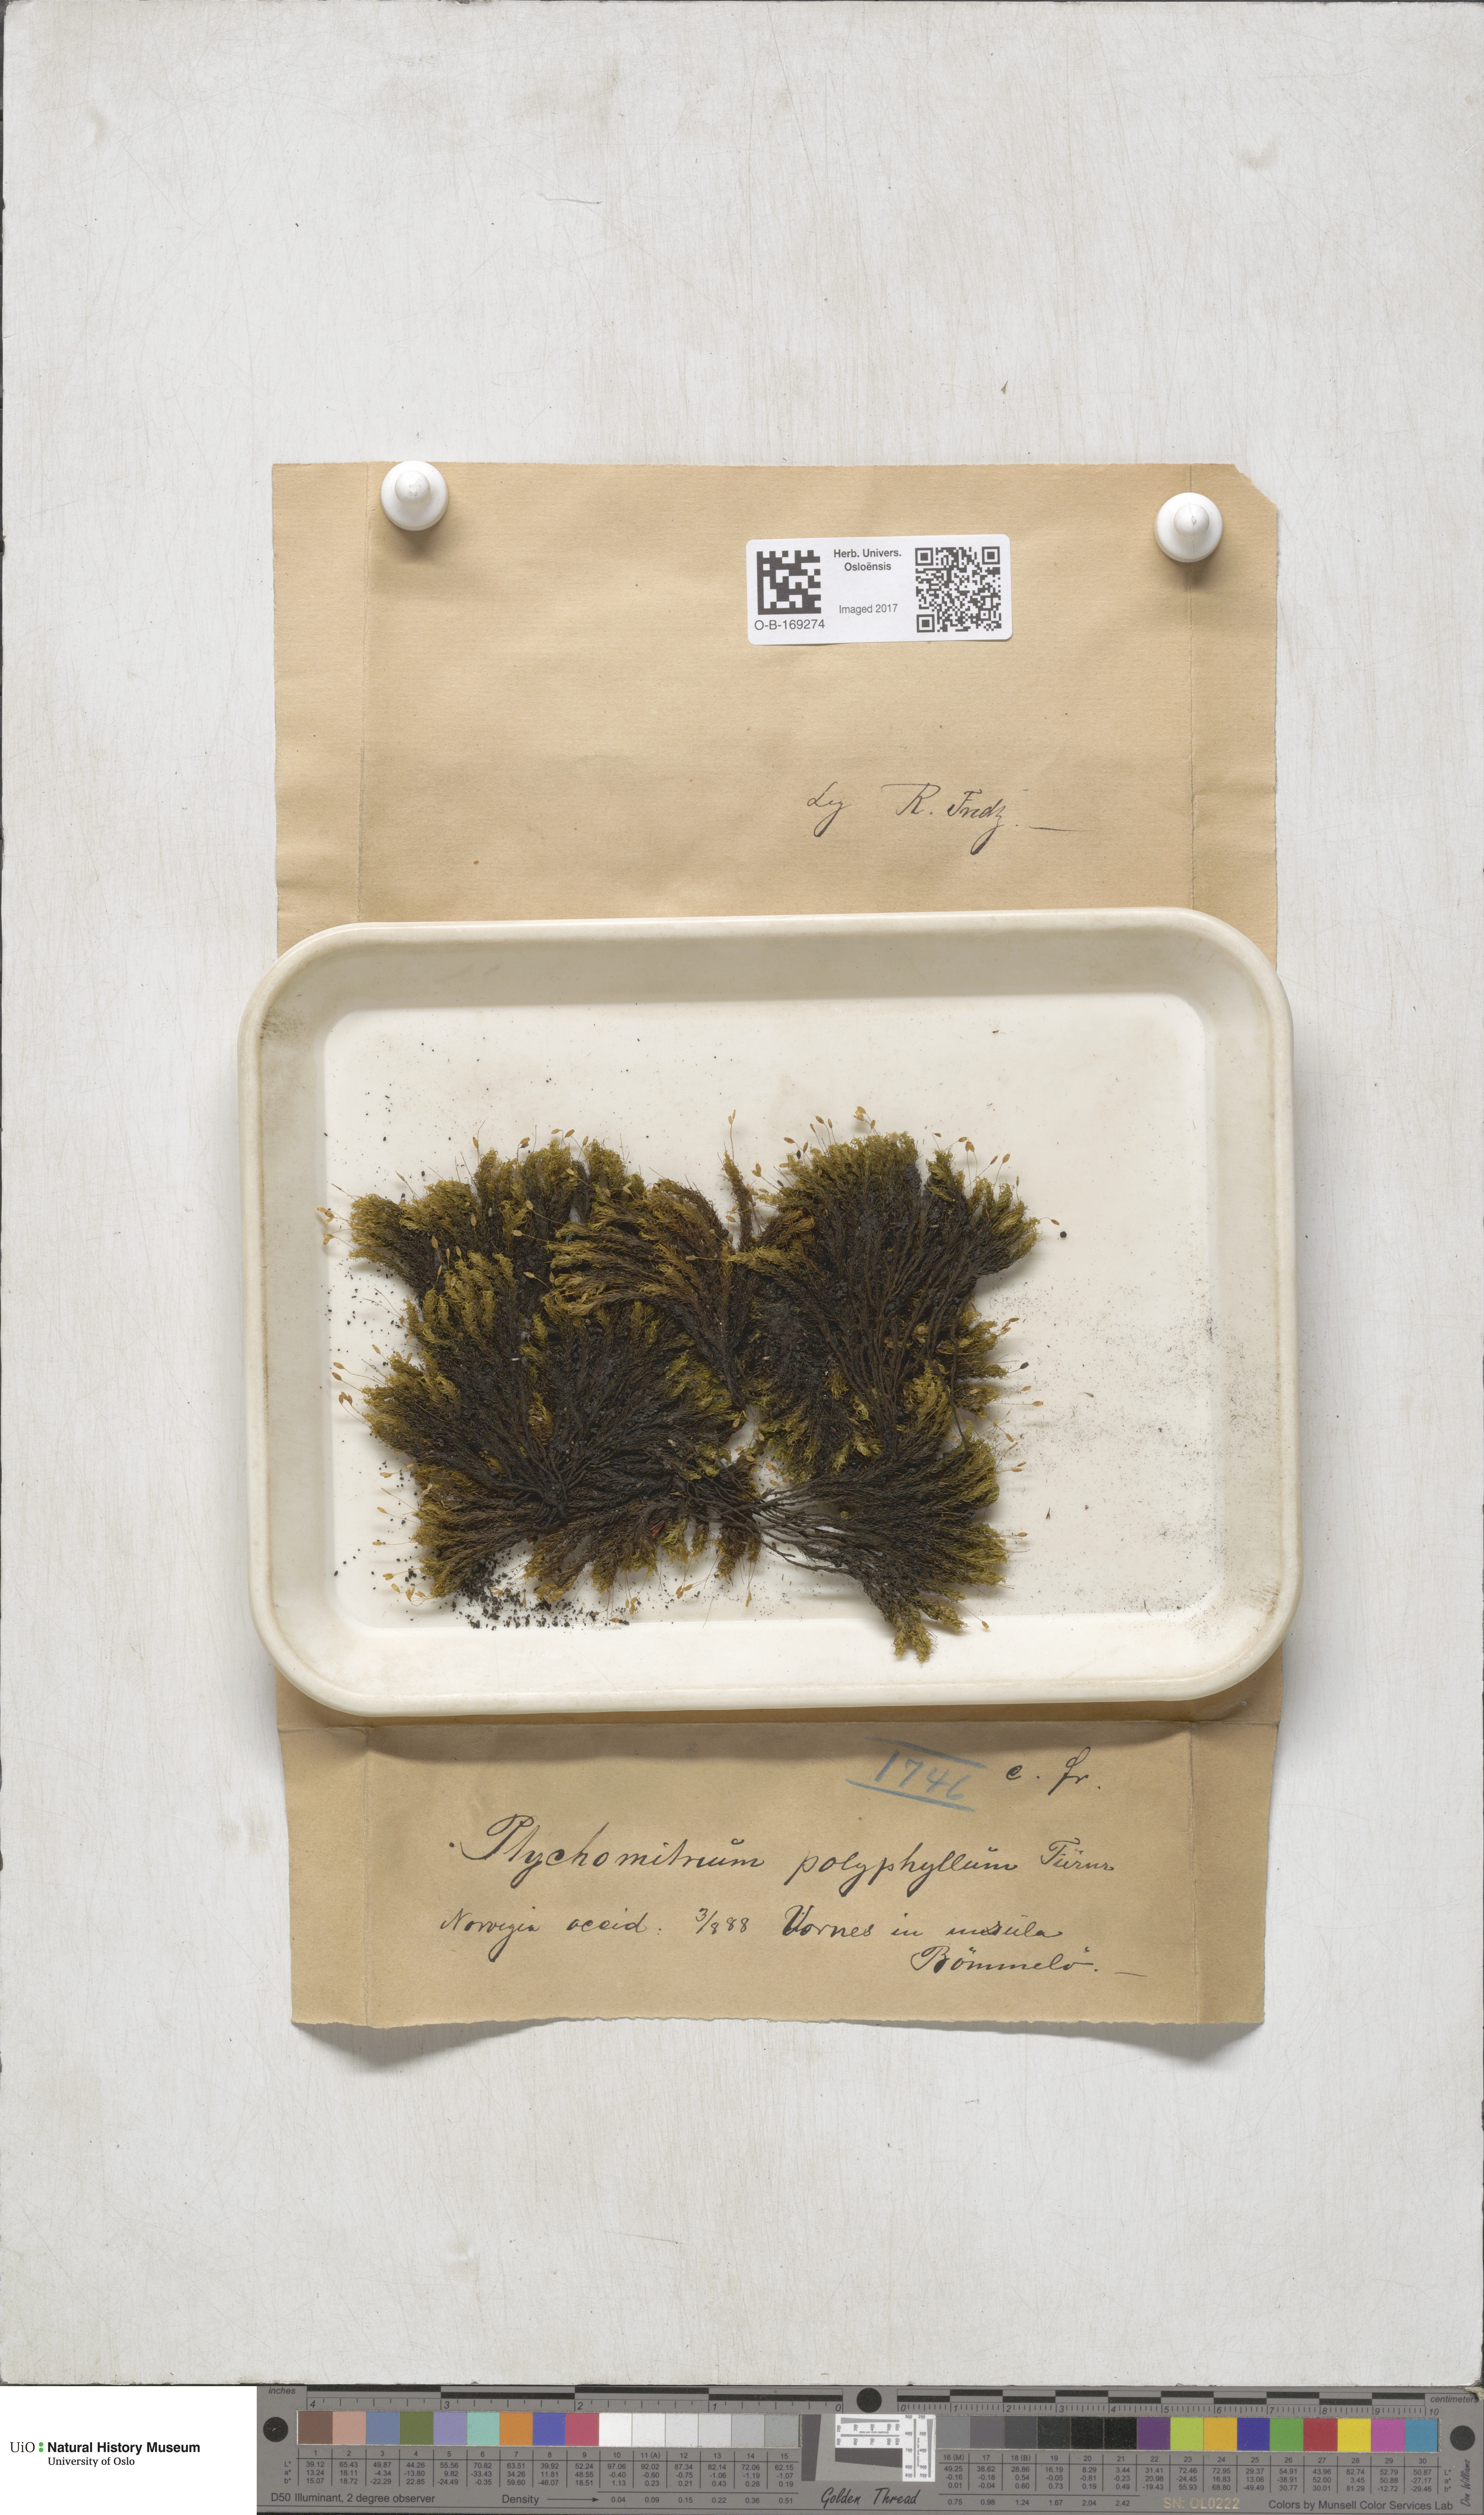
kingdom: Plantae
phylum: Bryophyta
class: Bryopsida
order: Grimmiales
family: Ptychomitriaceae
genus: Ptychomitrium
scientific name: Ptychomitrium polyphyllum
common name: Greater pincushion
